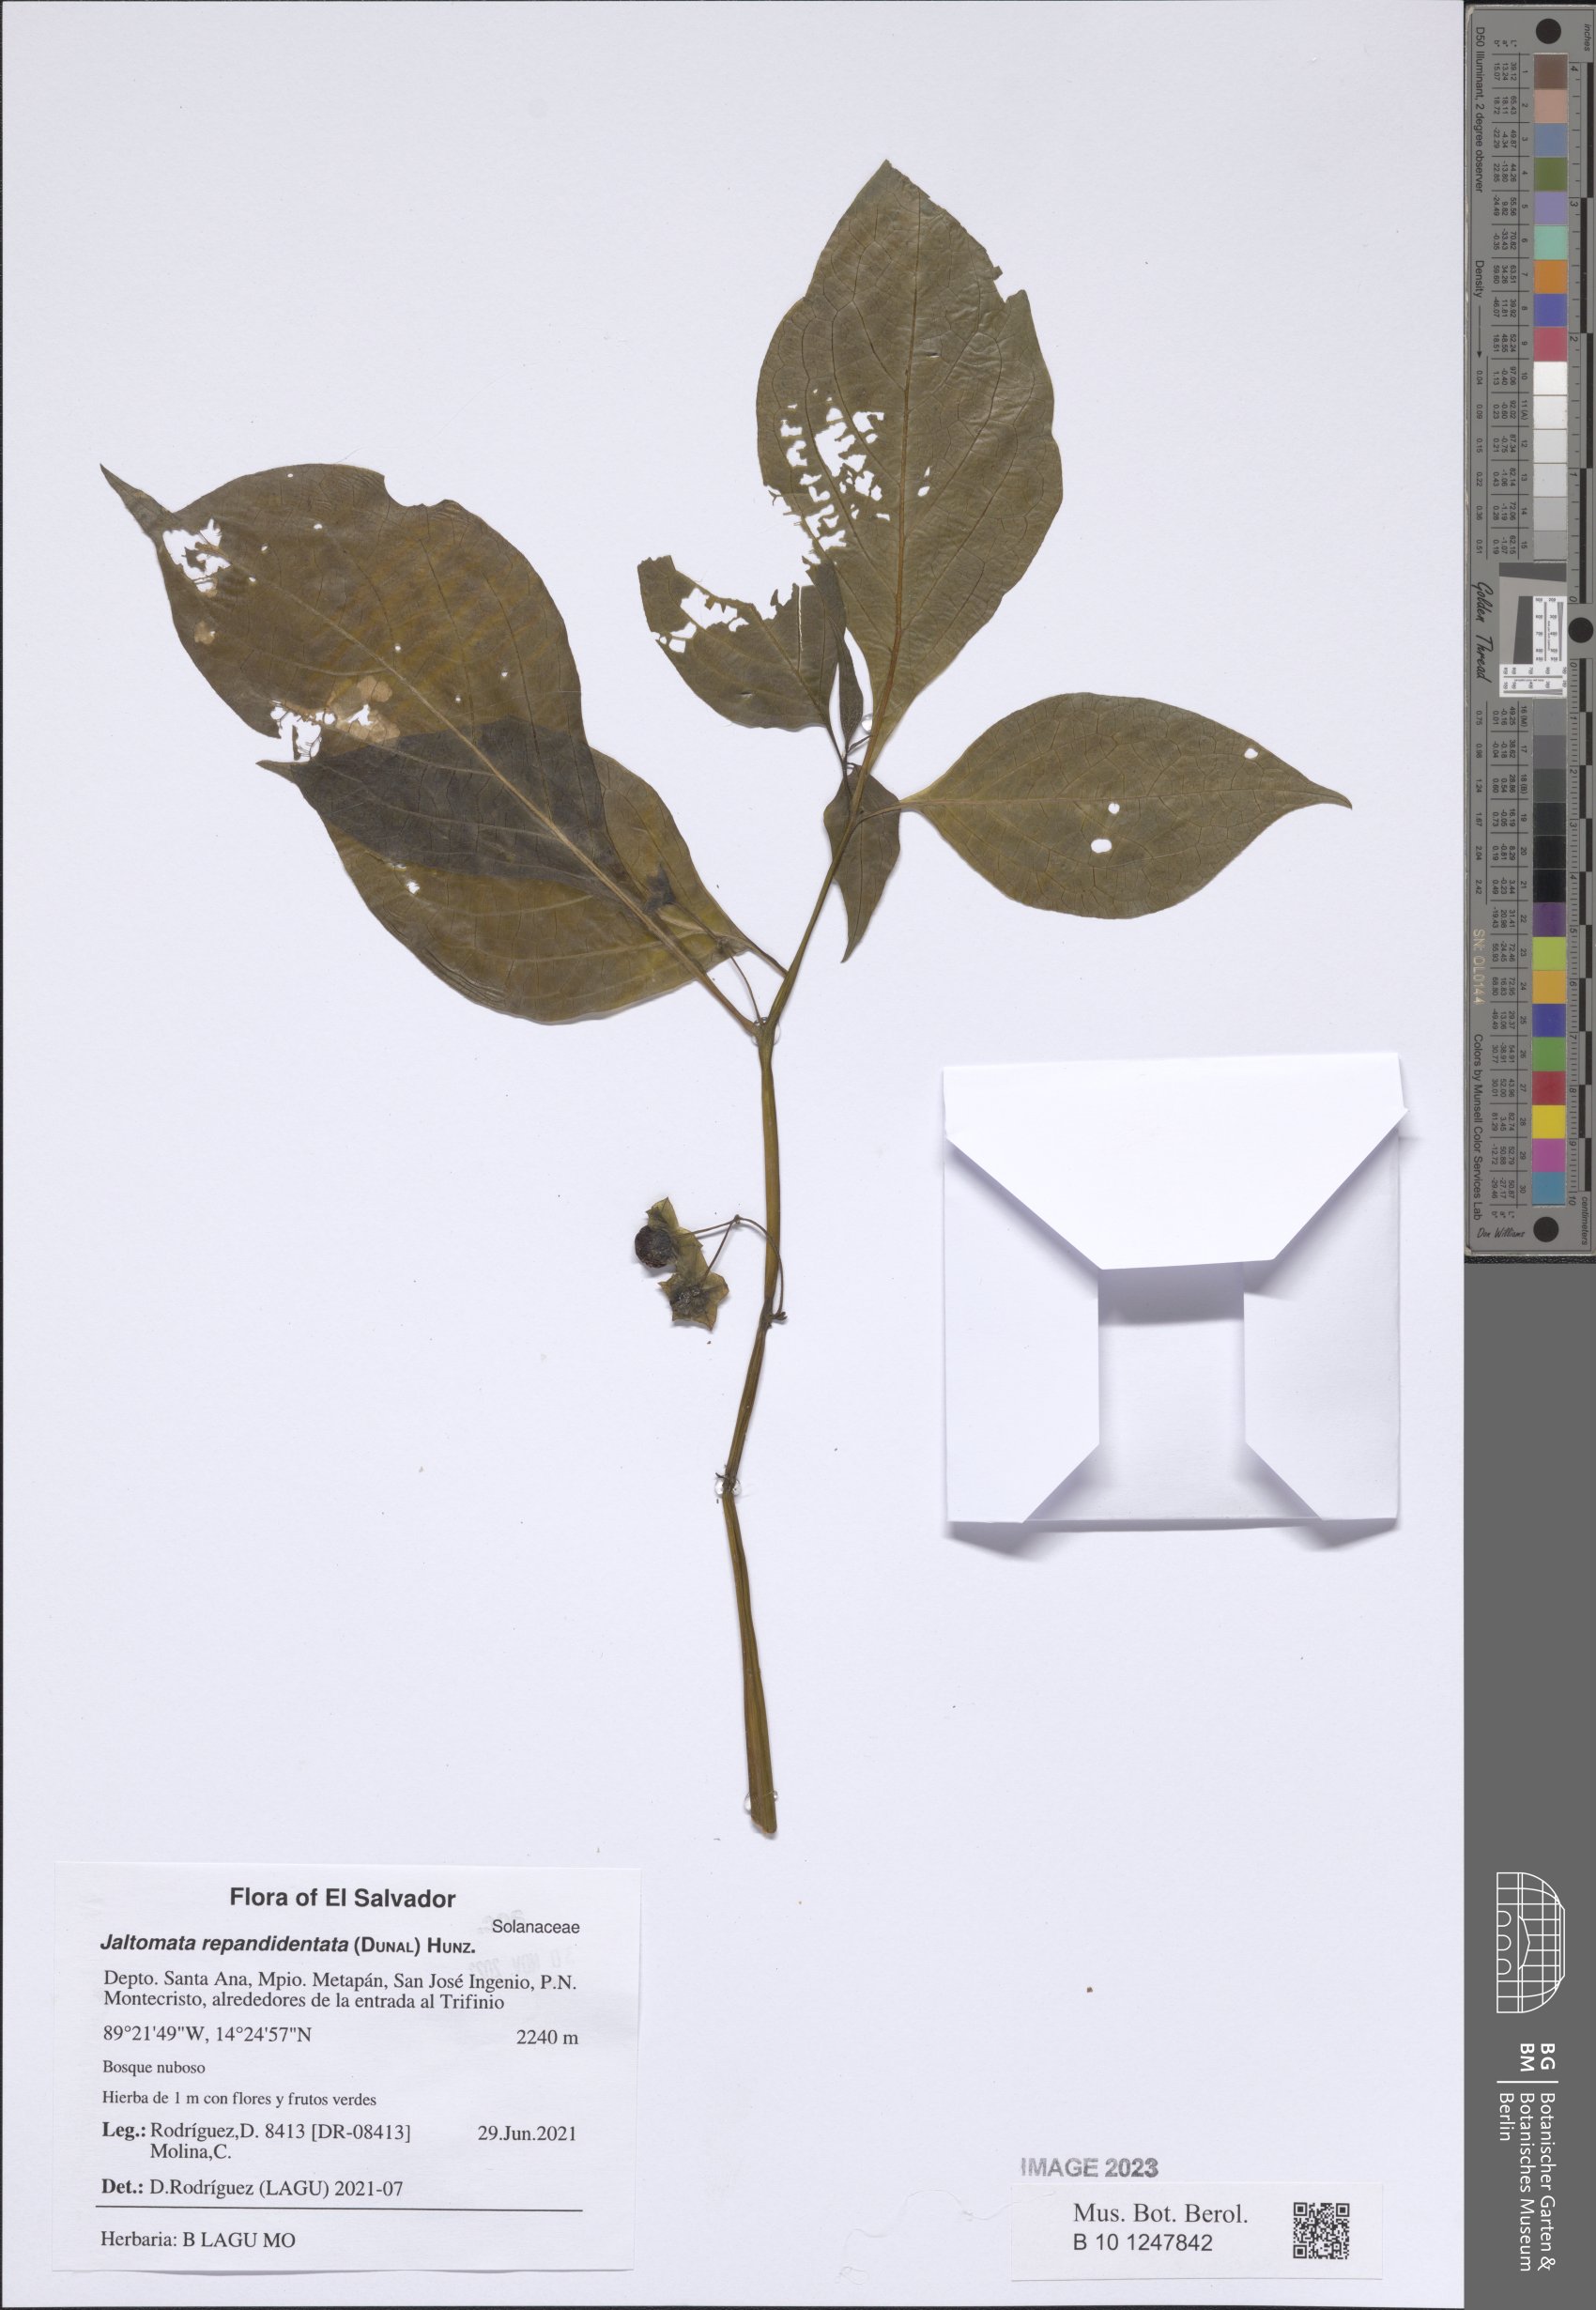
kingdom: Plantae
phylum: Tracheophyta
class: Magnoliopsida
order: Solanales
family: Solanaceae
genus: Jaltomata
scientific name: Jaltomata repandidentata
